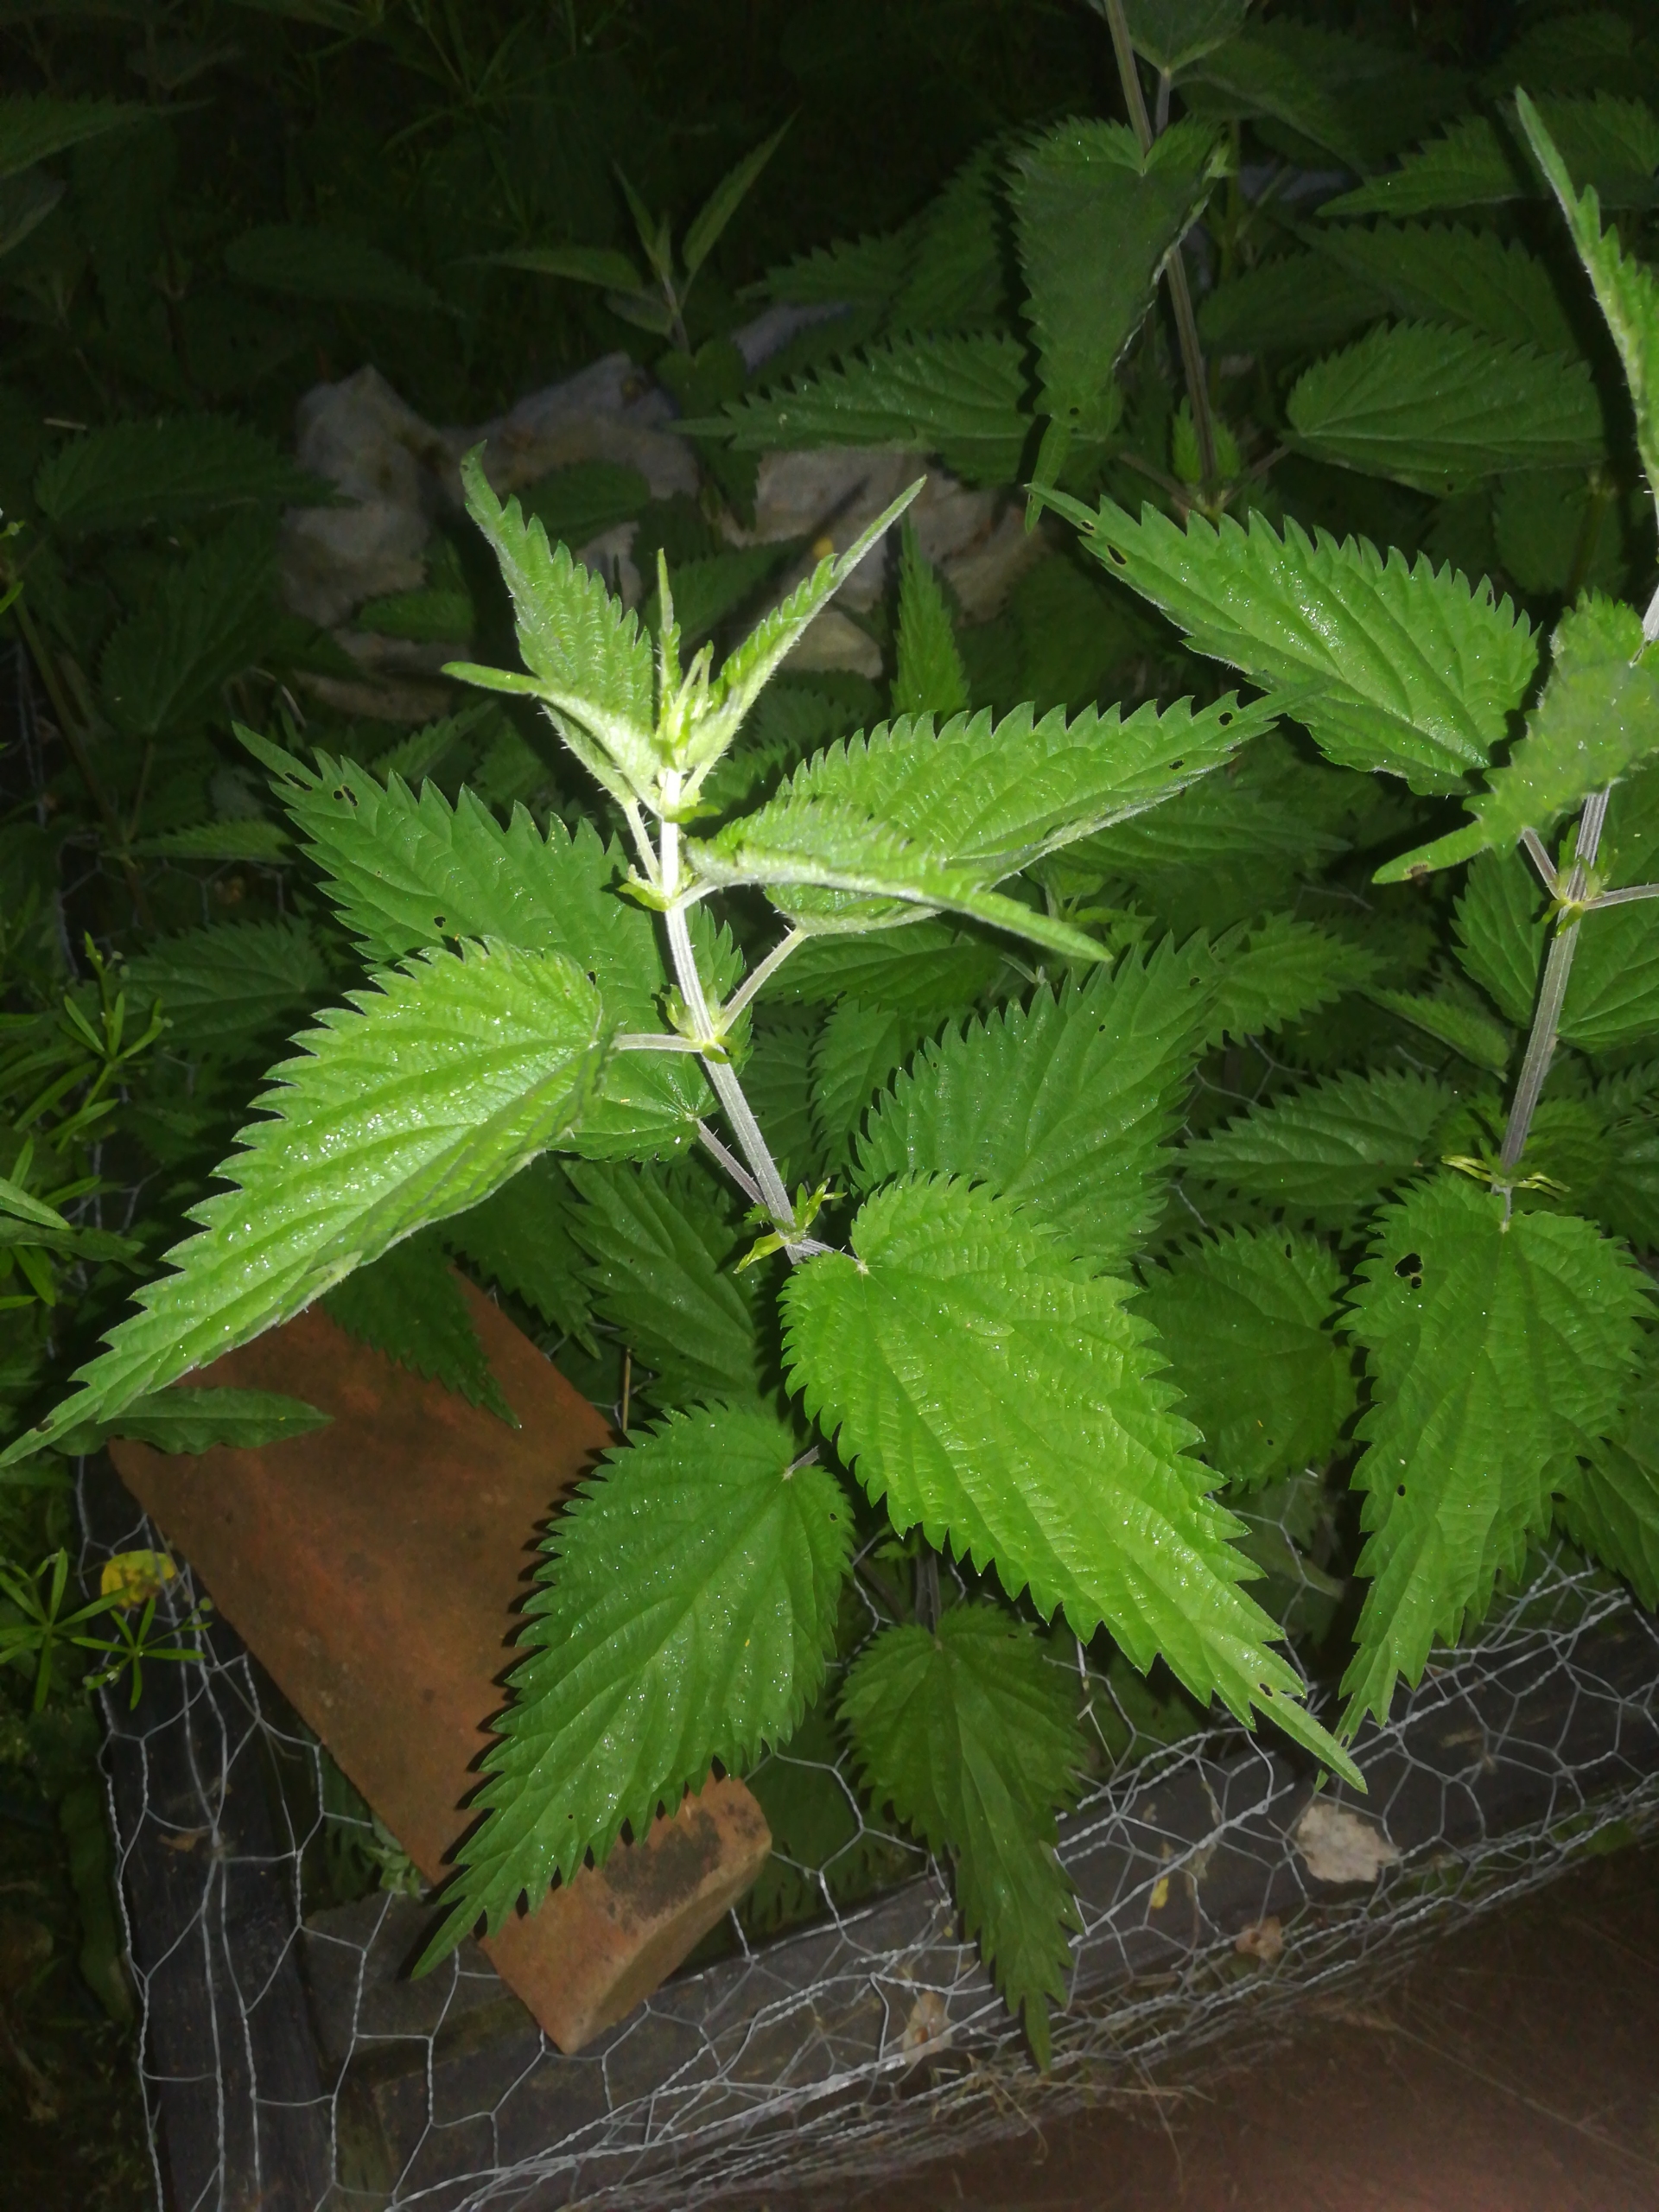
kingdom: Plantae
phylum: Tracheophyta
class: Magnoliopsida
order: Rosales
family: Urticaceae
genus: Urtica
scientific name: Urtica dioica
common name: Stor nælde
